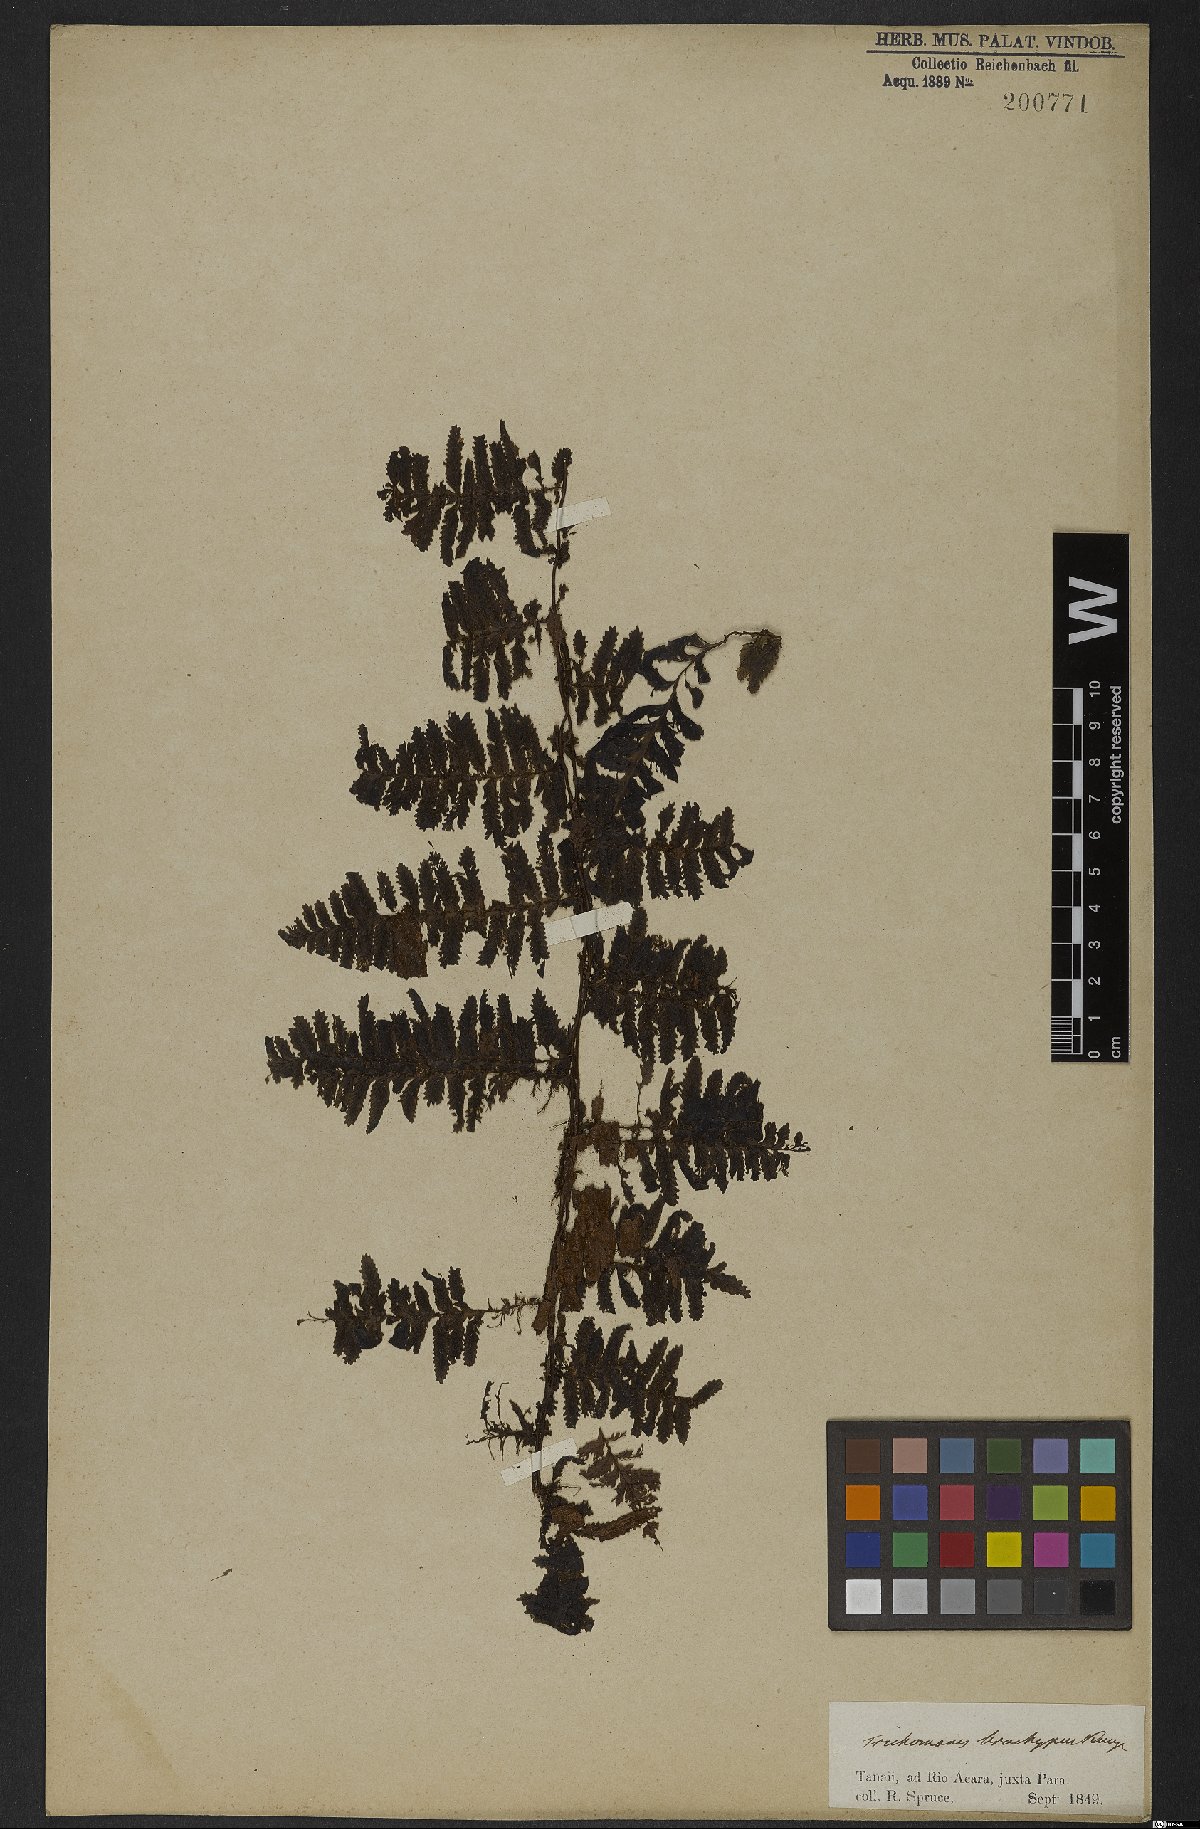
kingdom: Plantae
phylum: Tracheophyta
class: Polypodiopsida
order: Hymenophyllales
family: Hymenophyllaceae
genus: Trichomanes
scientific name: Trichomanes pedicellatum
